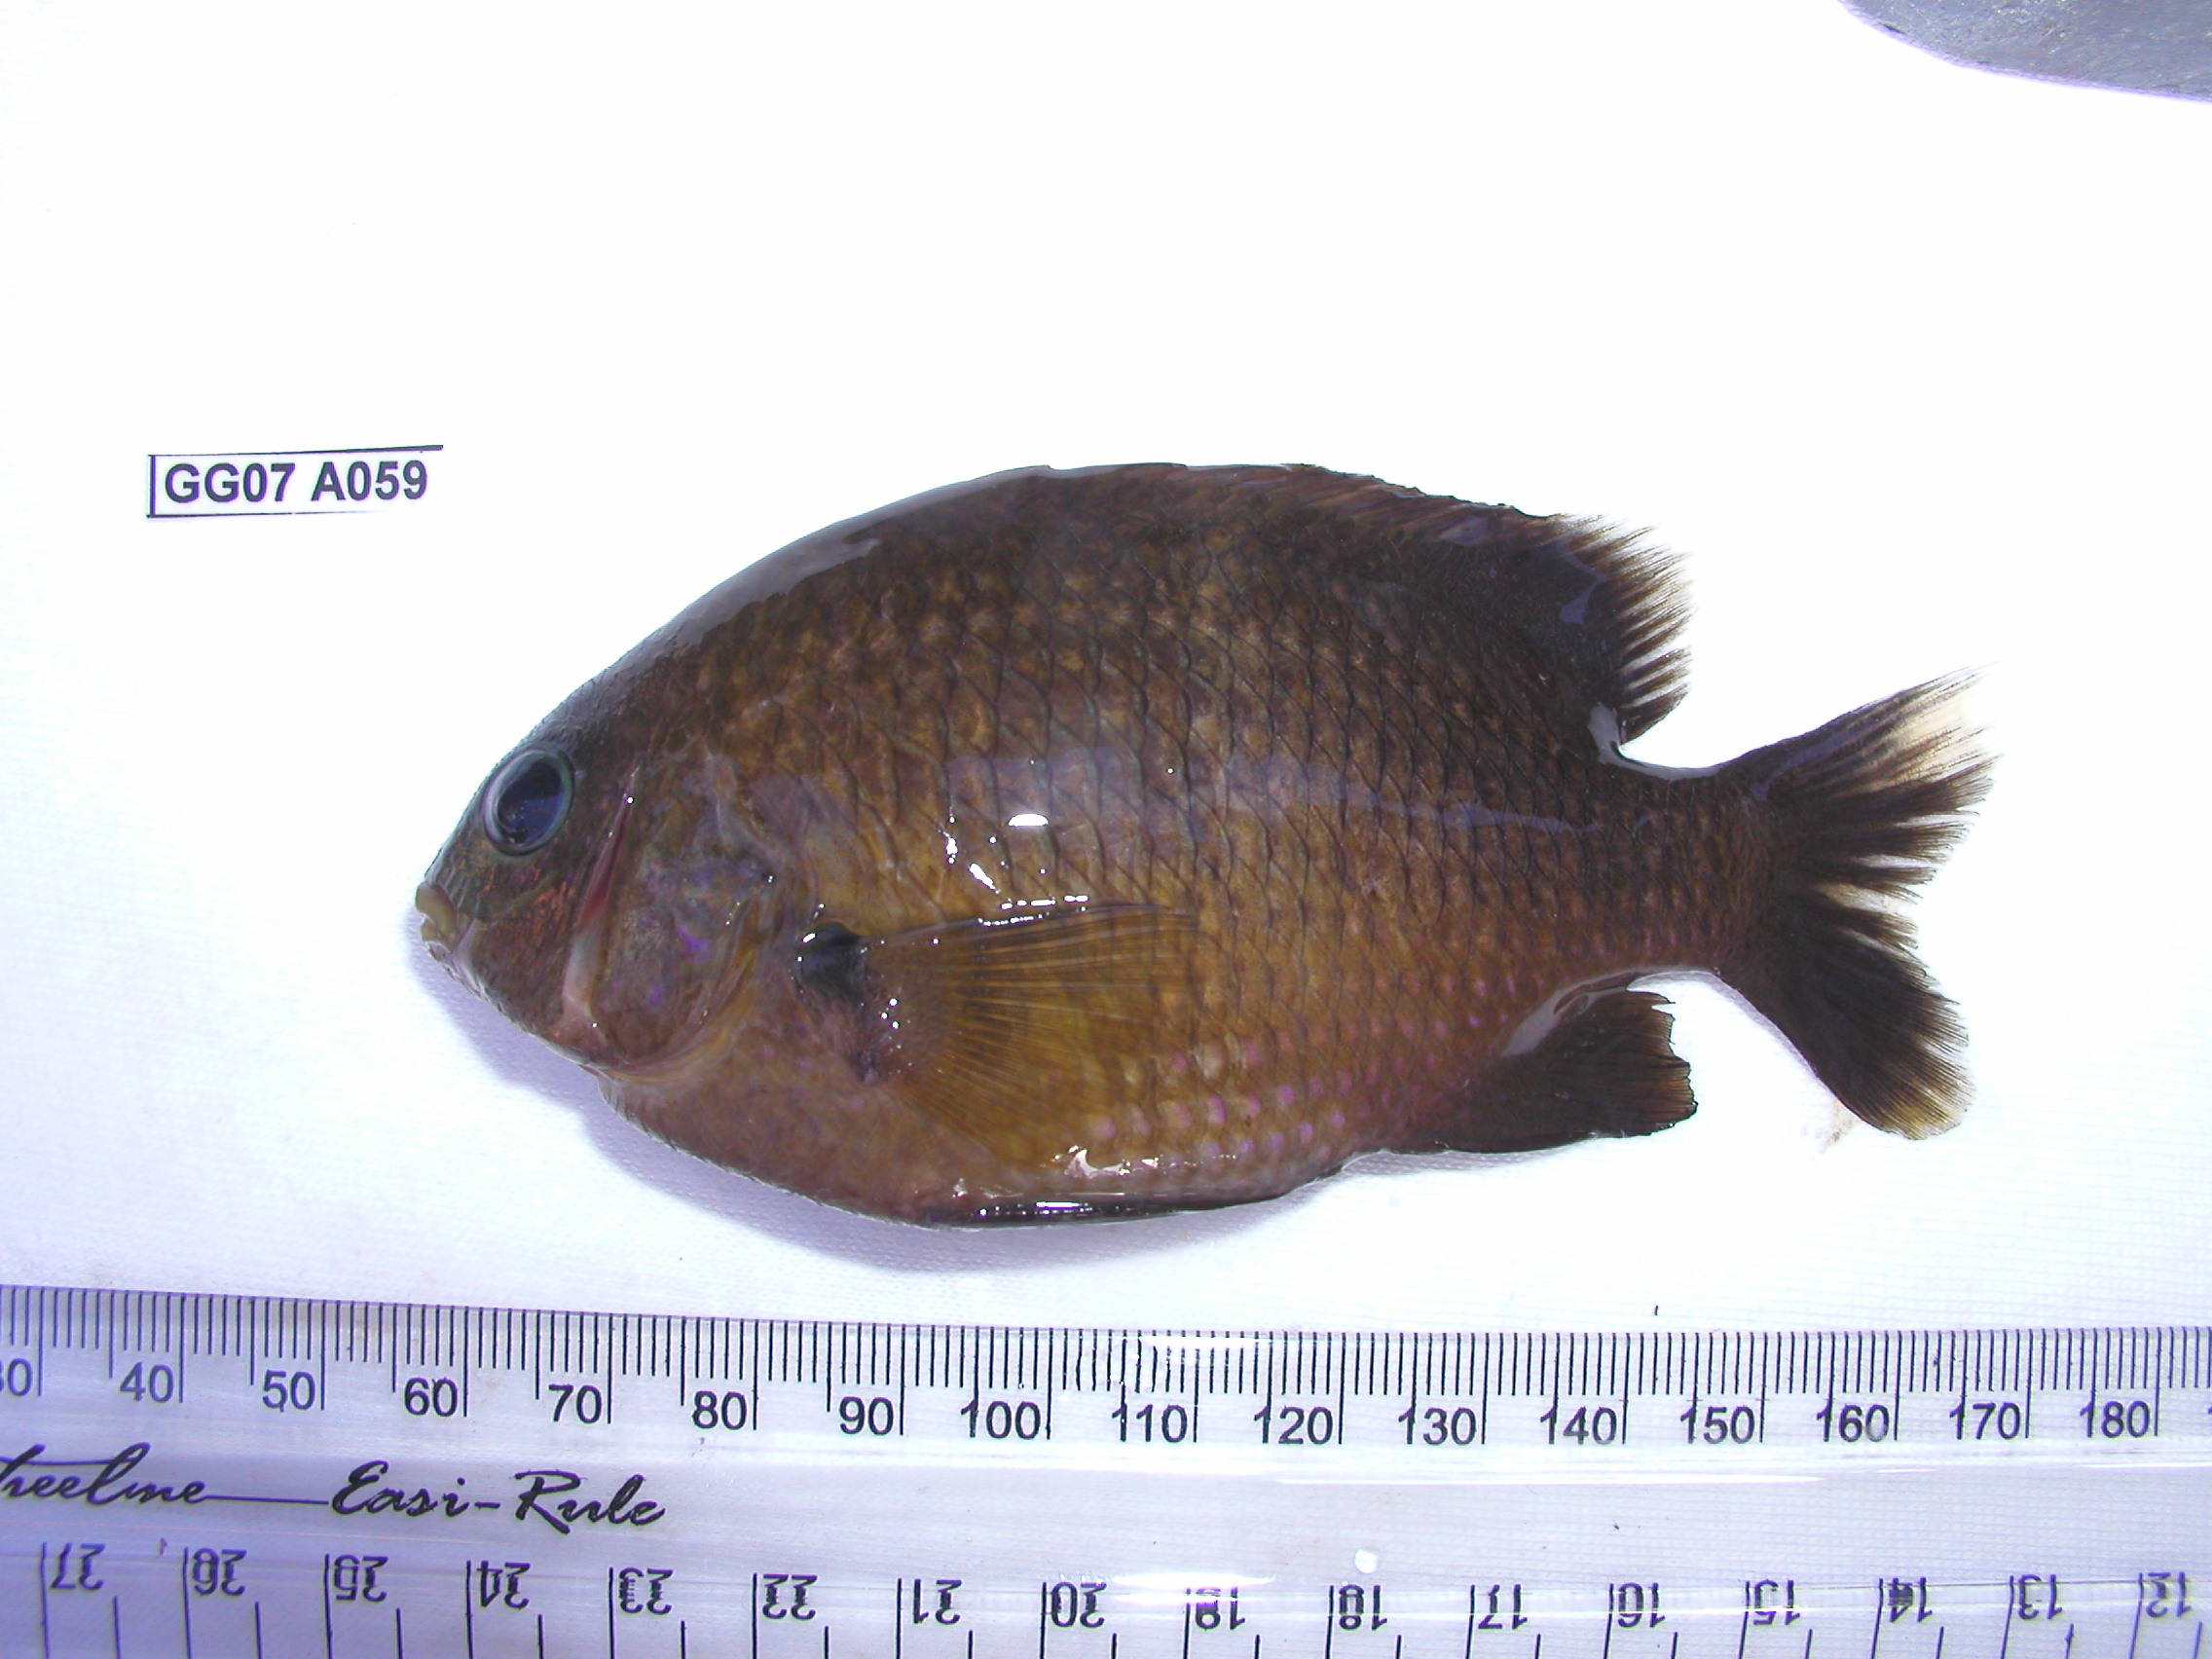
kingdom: Animalia
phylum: Chordata
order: Perciformes
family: Pomacentridae
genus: Plectroglyphidodon
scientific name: Plectroglyphidodon leucozonus
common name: White-band damsel
